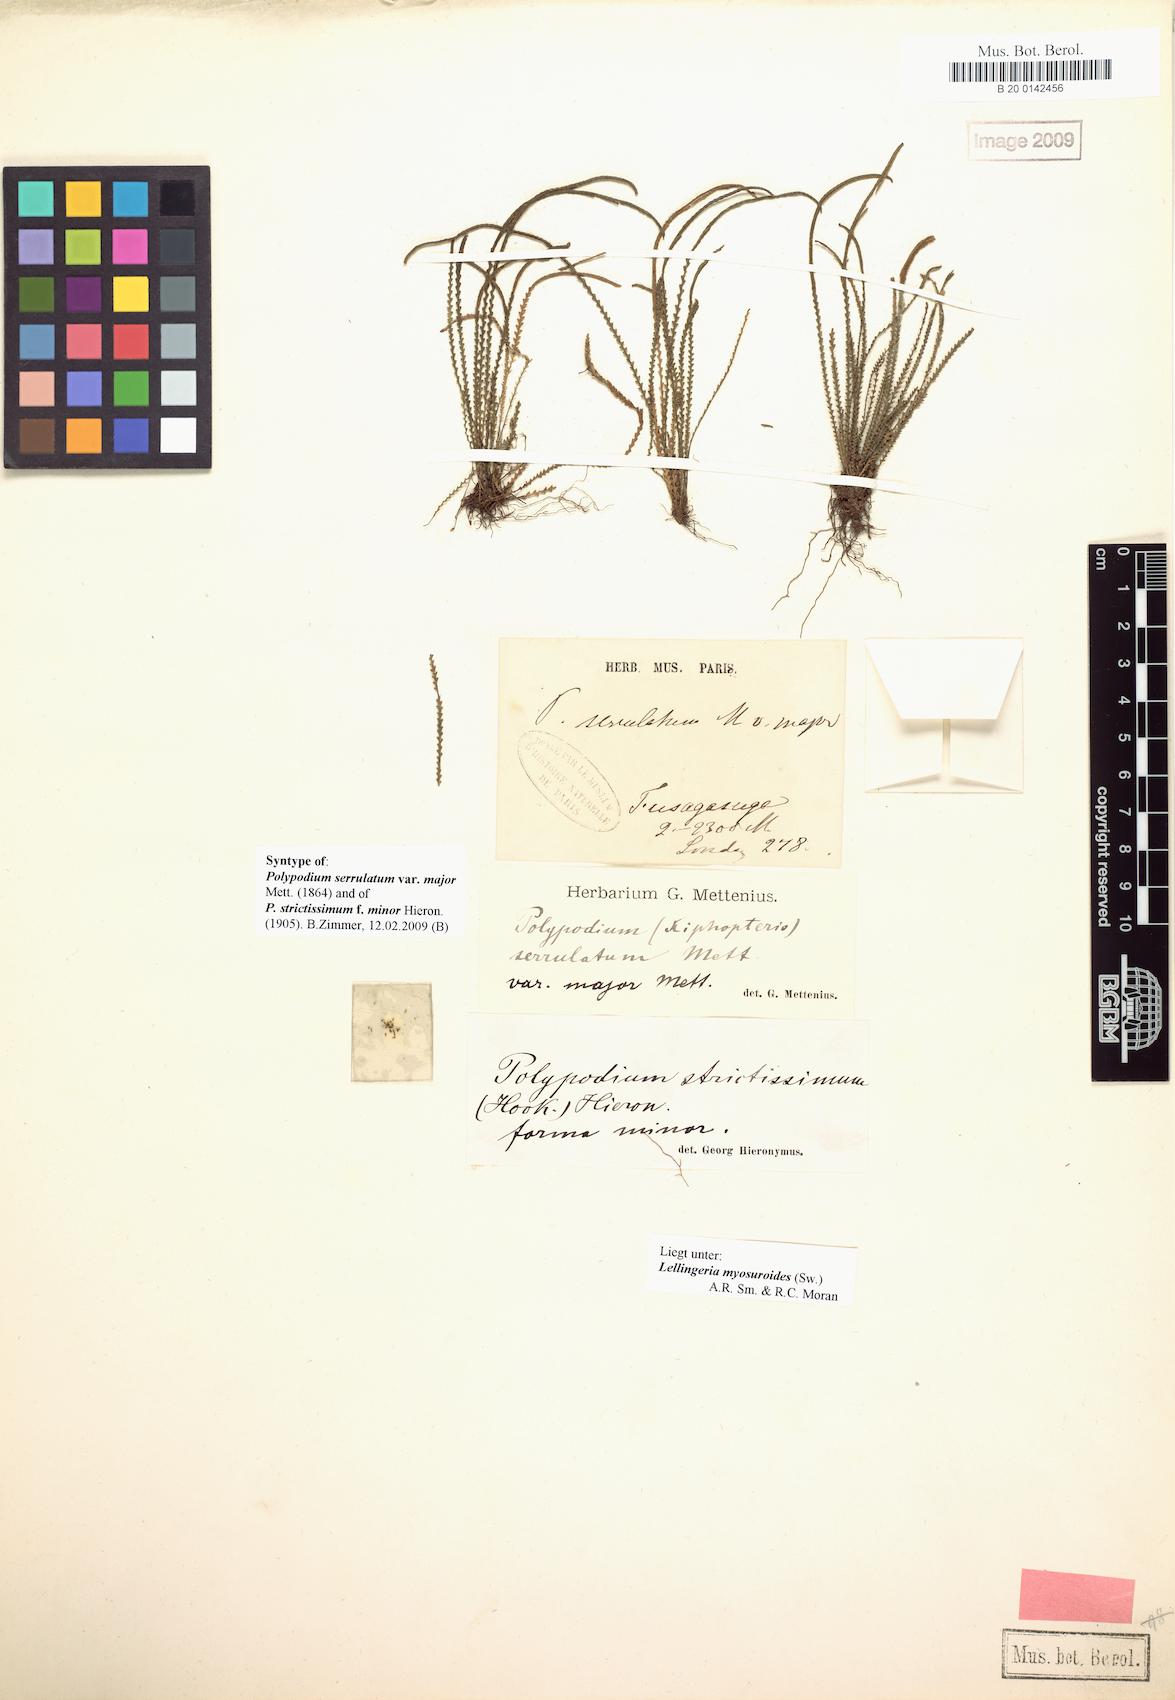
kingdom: Plantae
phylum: Tracheophyta
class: Polypodiopsida
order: Polypodiales
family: Polypodiaceae
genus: Stenogrammitis
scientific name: Stenogrammitis jamesonii
